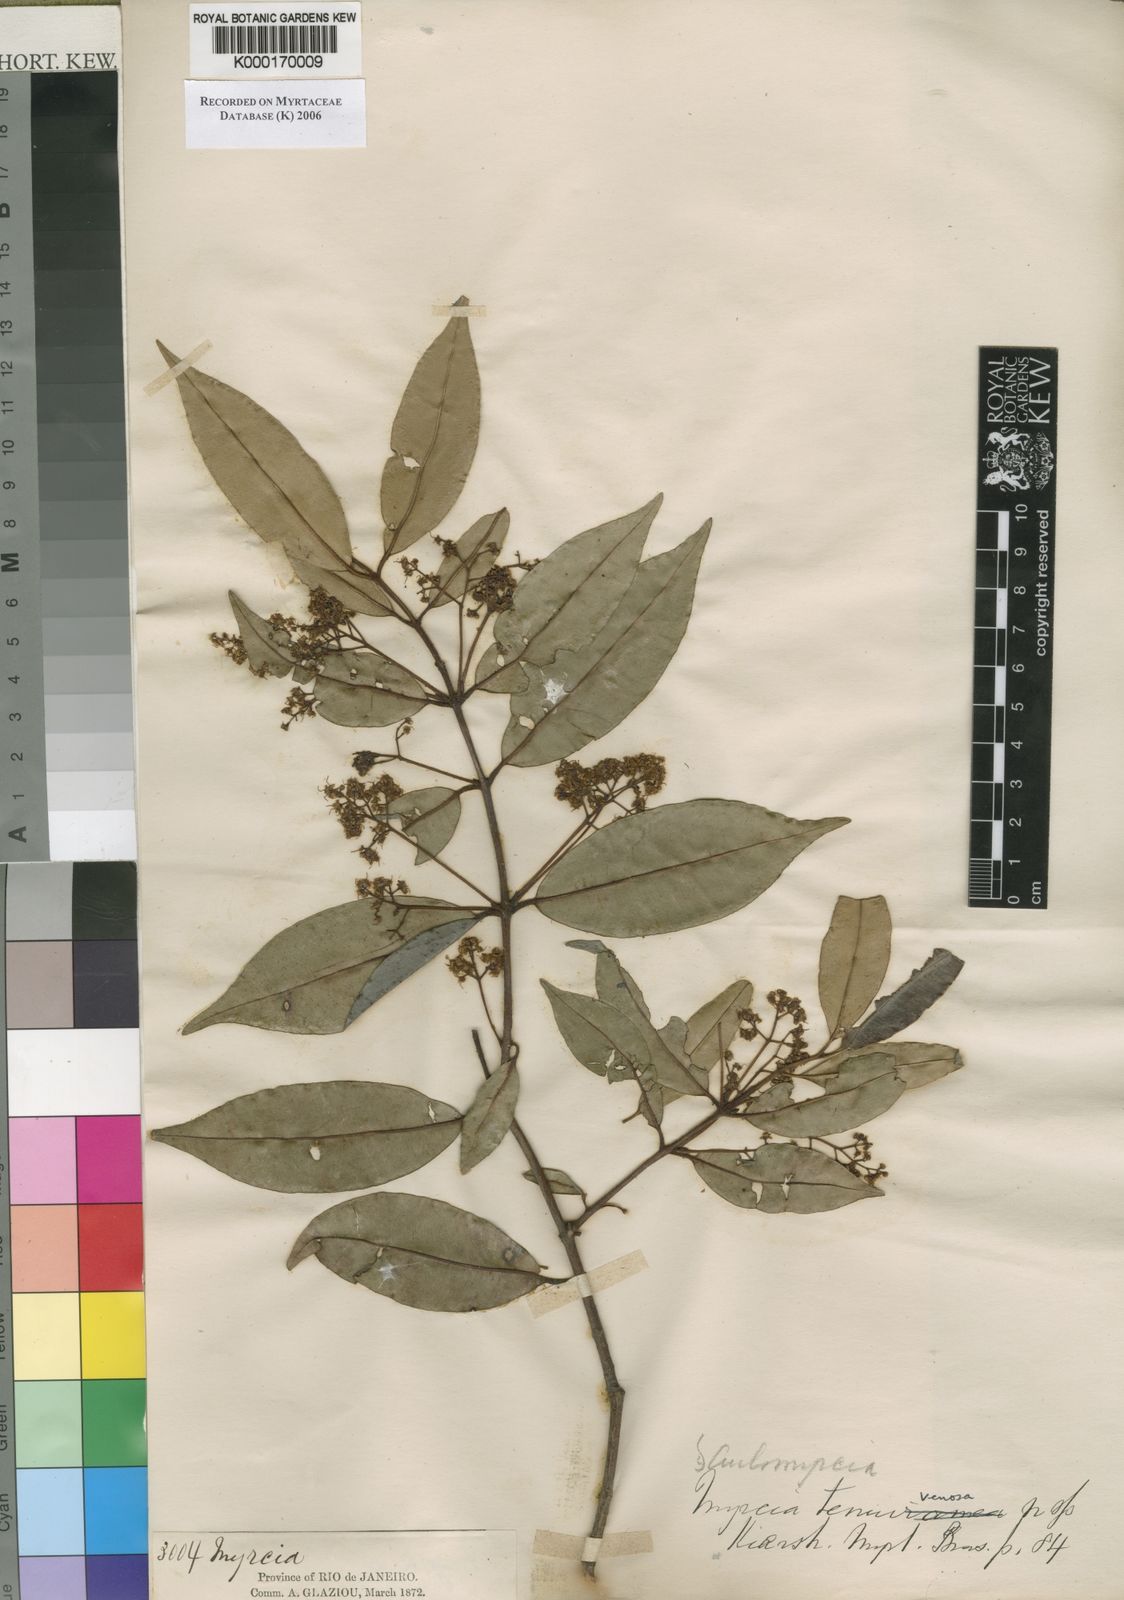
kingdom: Plantae
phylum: Tracheophyta
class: Magnoliopsida
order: Myrtales
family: Myrtaceae
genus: Myrcia
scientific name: Myrcia tenuivenosa
